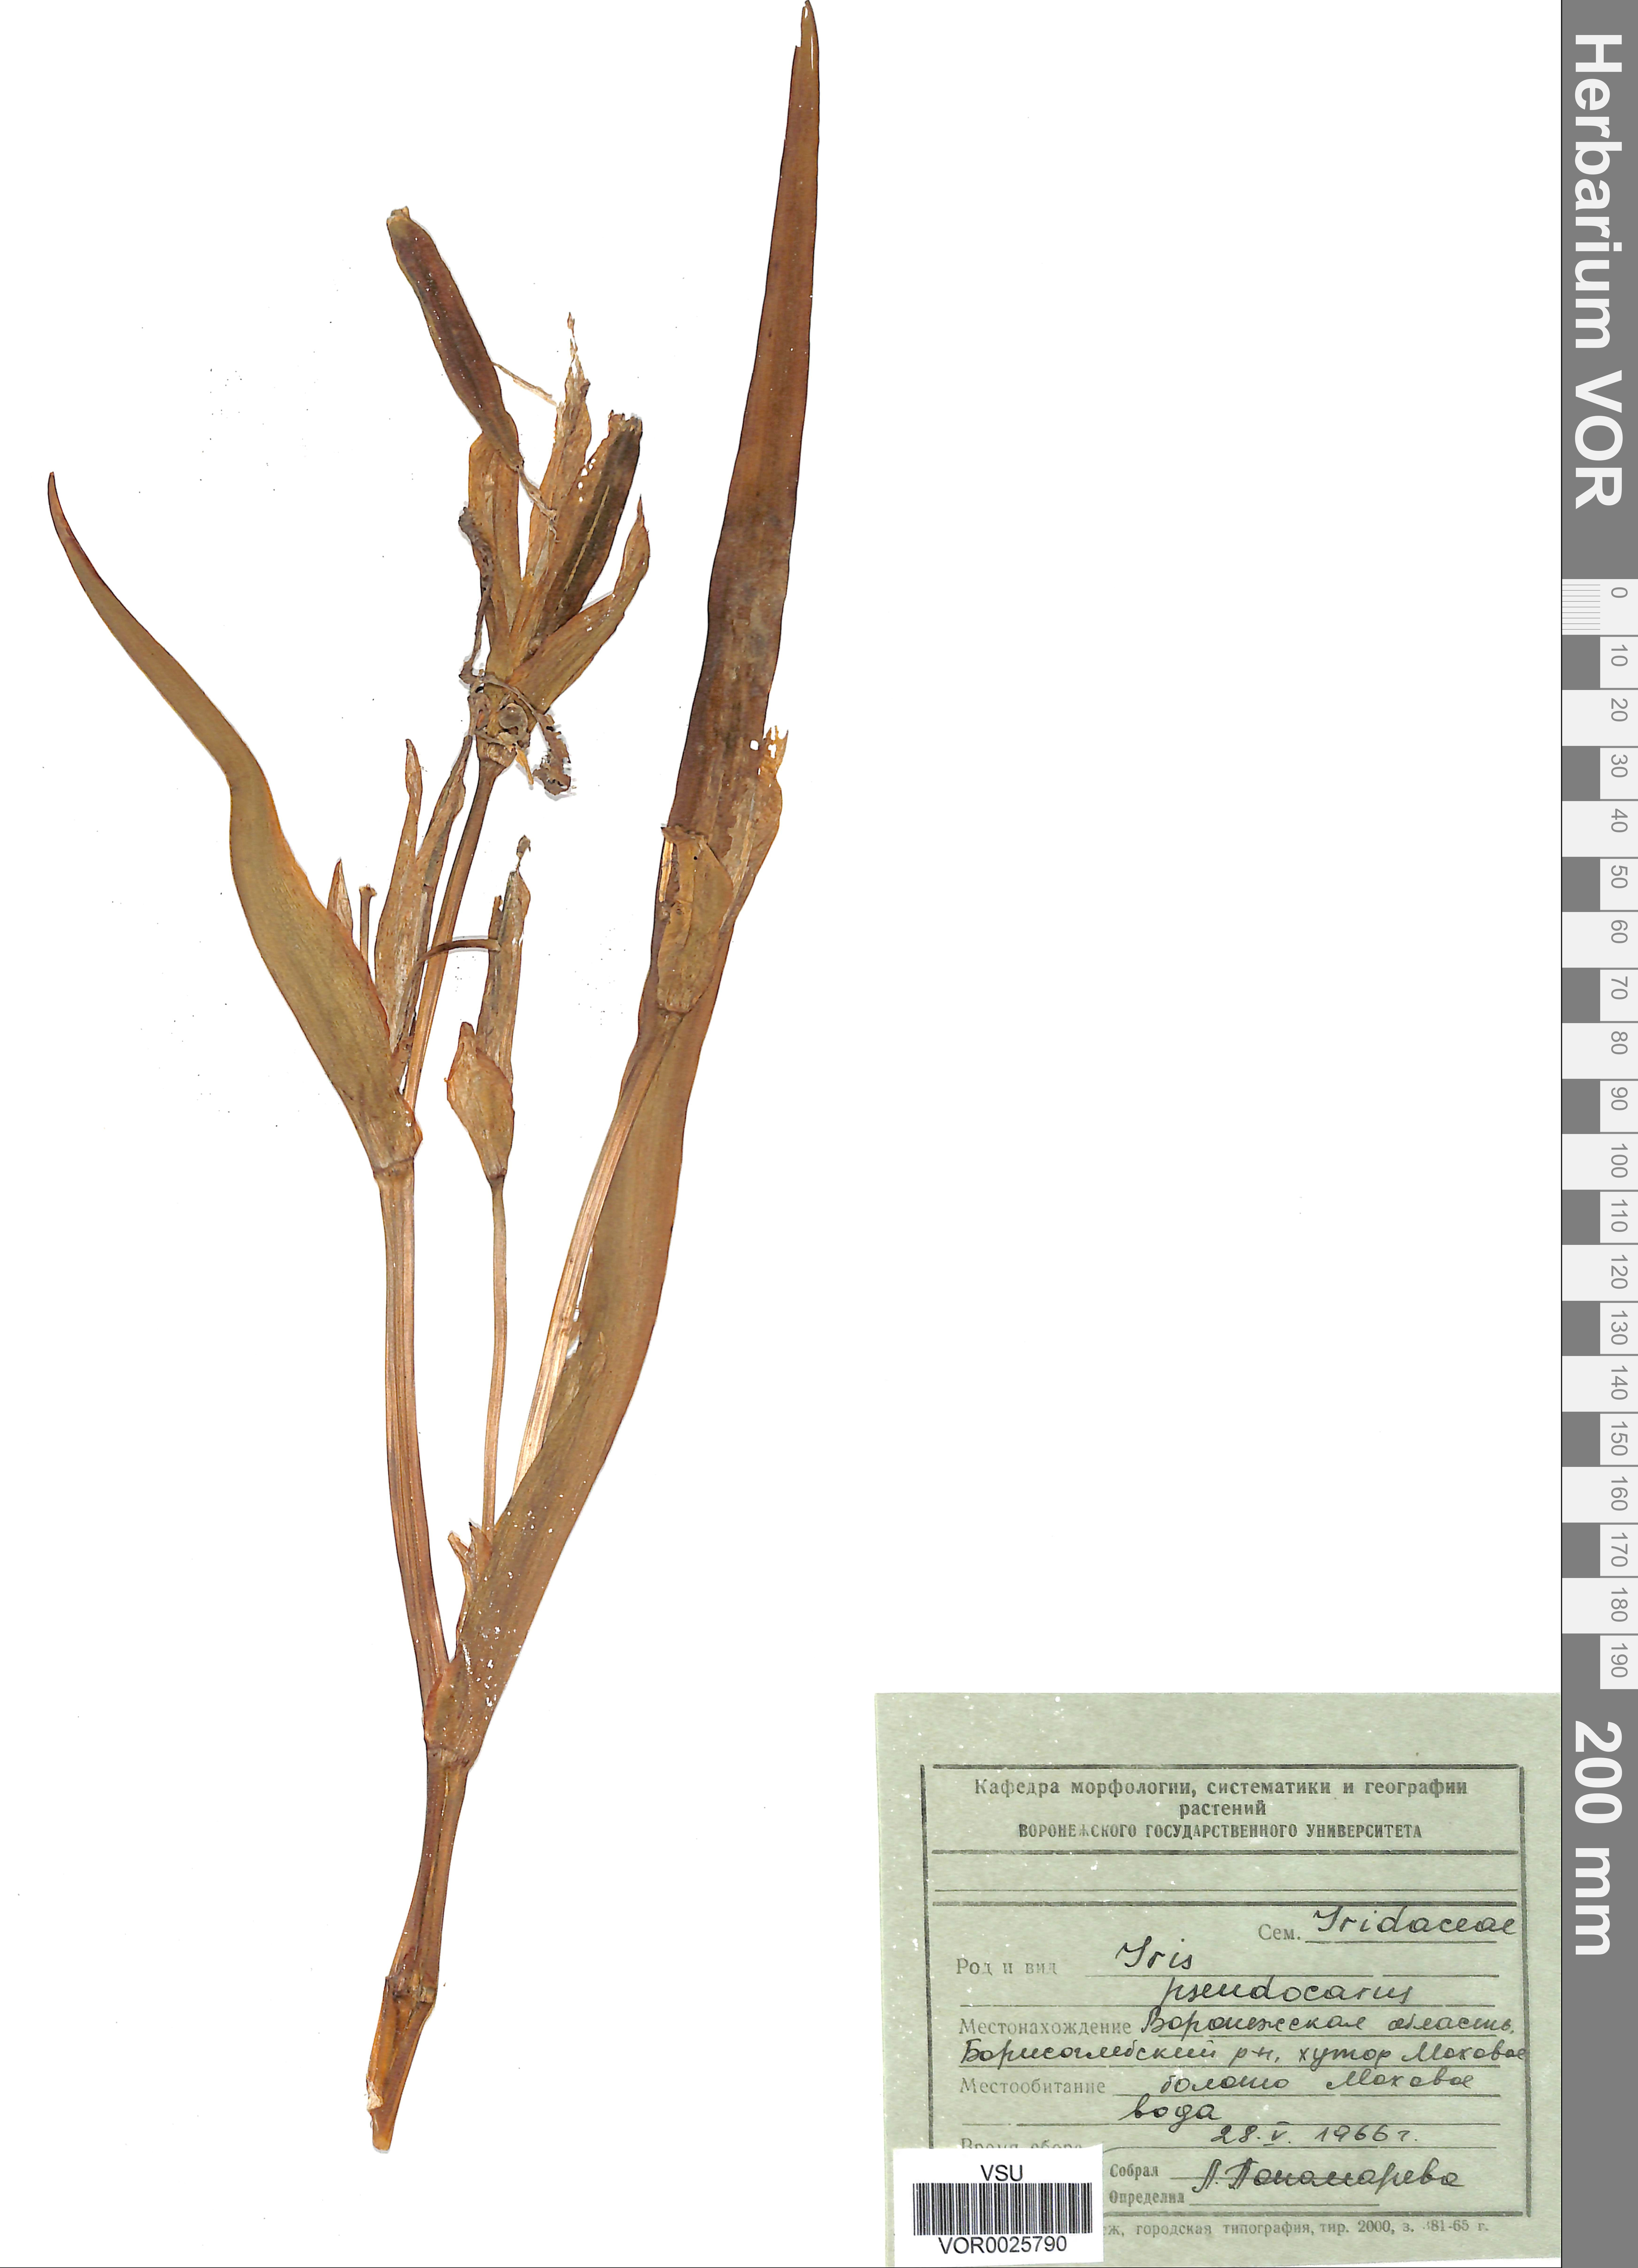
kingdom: Plantae
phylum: Tracheophyta
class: Liliopsida
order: Asparagales
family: Iridaceae
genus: Iris
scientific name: Iris pseudacorus
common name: Yellow flag
